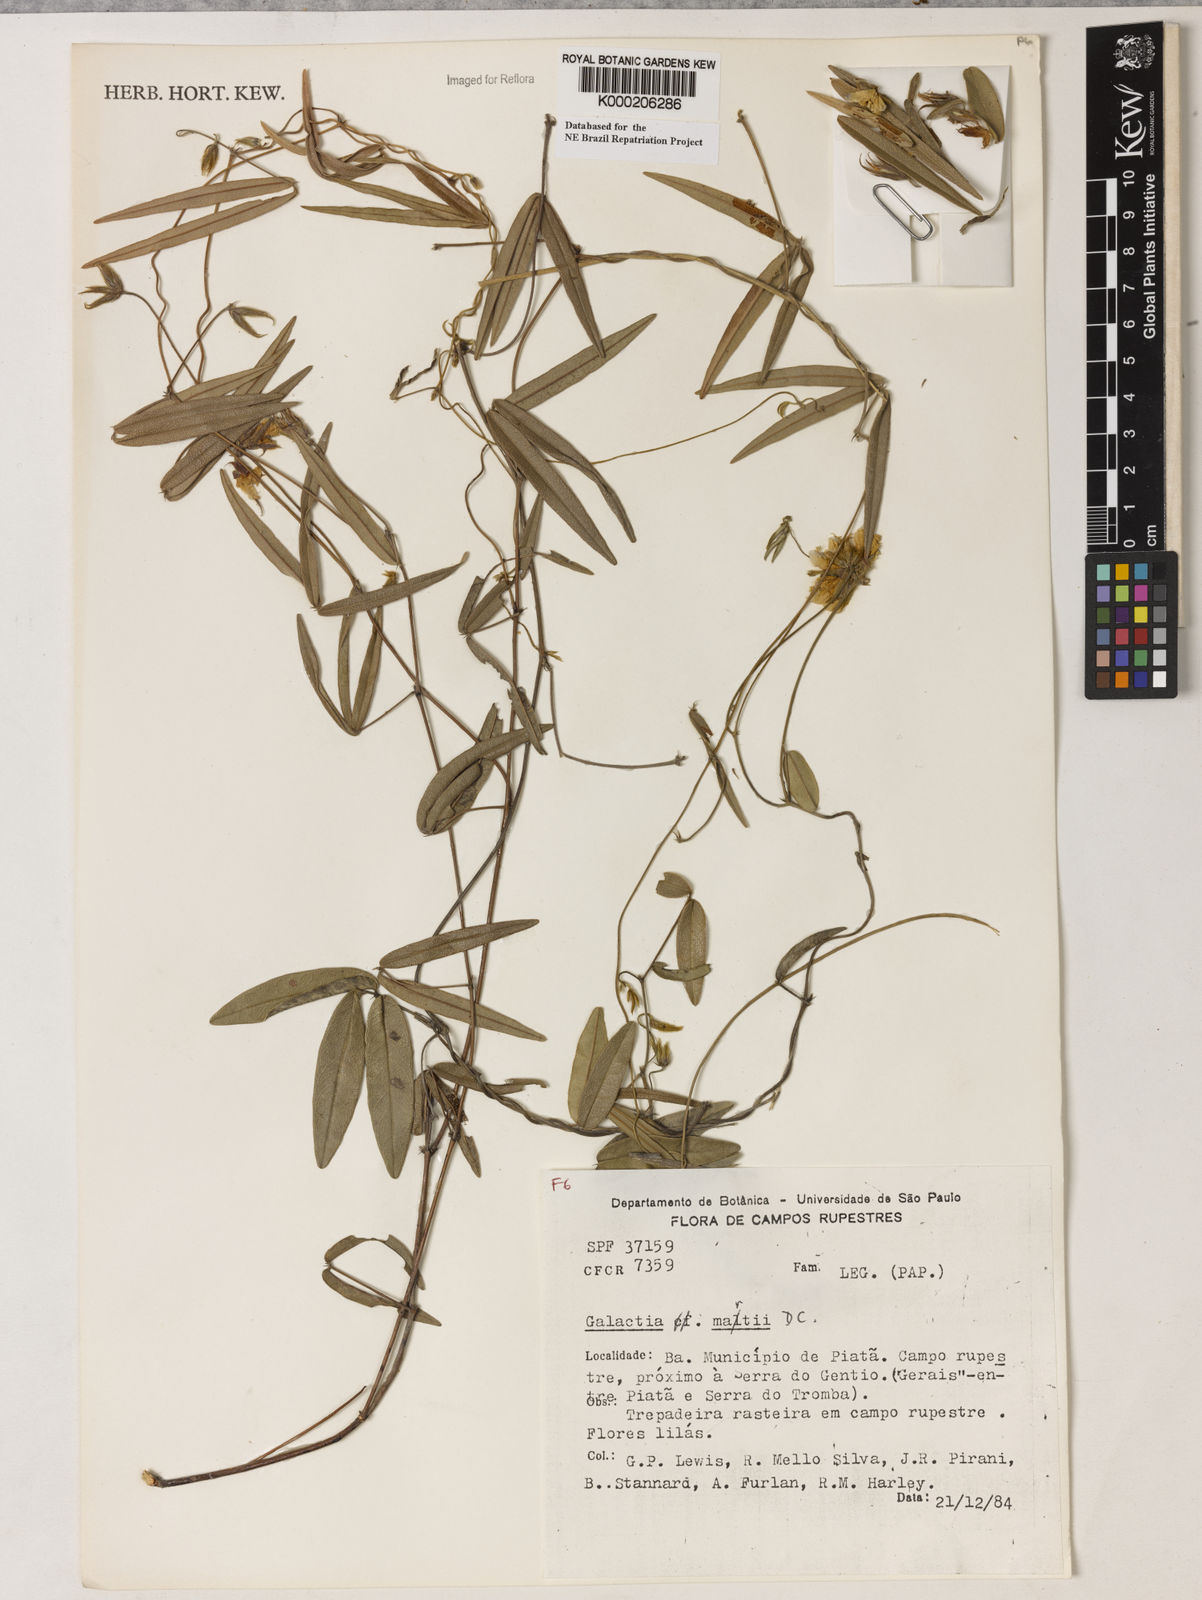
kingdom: Plantae
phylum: Tracheophyta
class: Magnoliopsida
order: Fabales
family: Fabaceae
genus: Betencourtia
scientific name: Betencourtia martii
